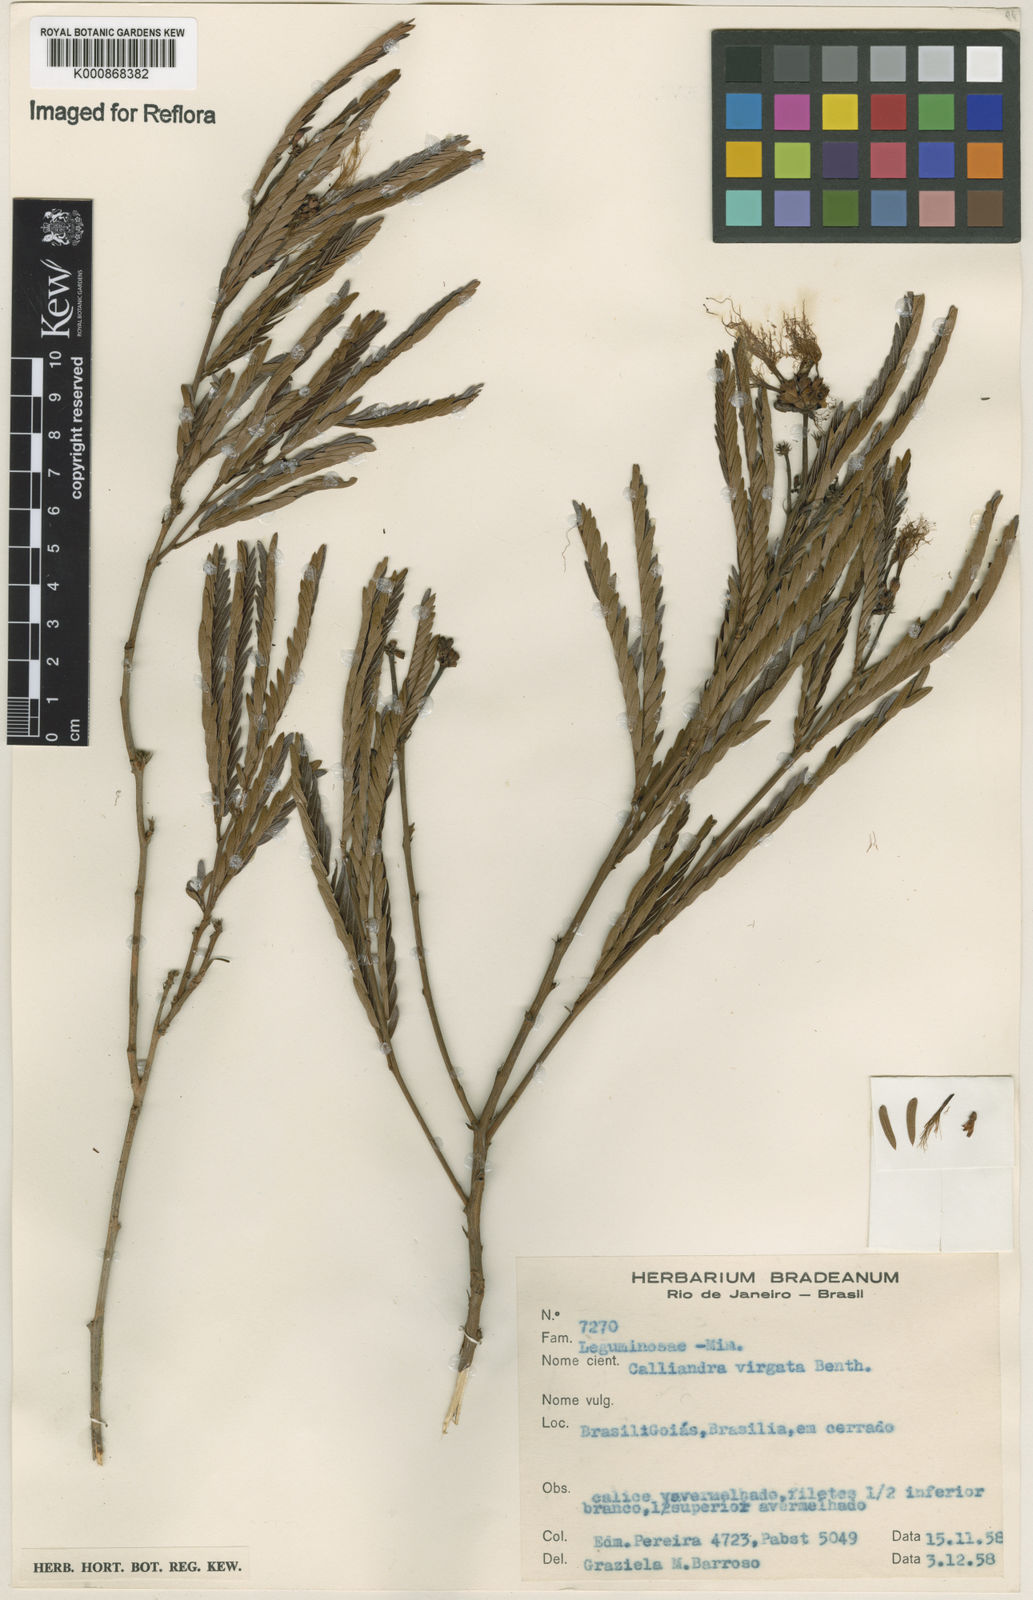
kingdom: Plantae
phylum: Tracheophyta
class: Magnoliopsida
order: Fabales
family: Fabaceae
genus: Calliandra
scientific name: Calliandra virgata
